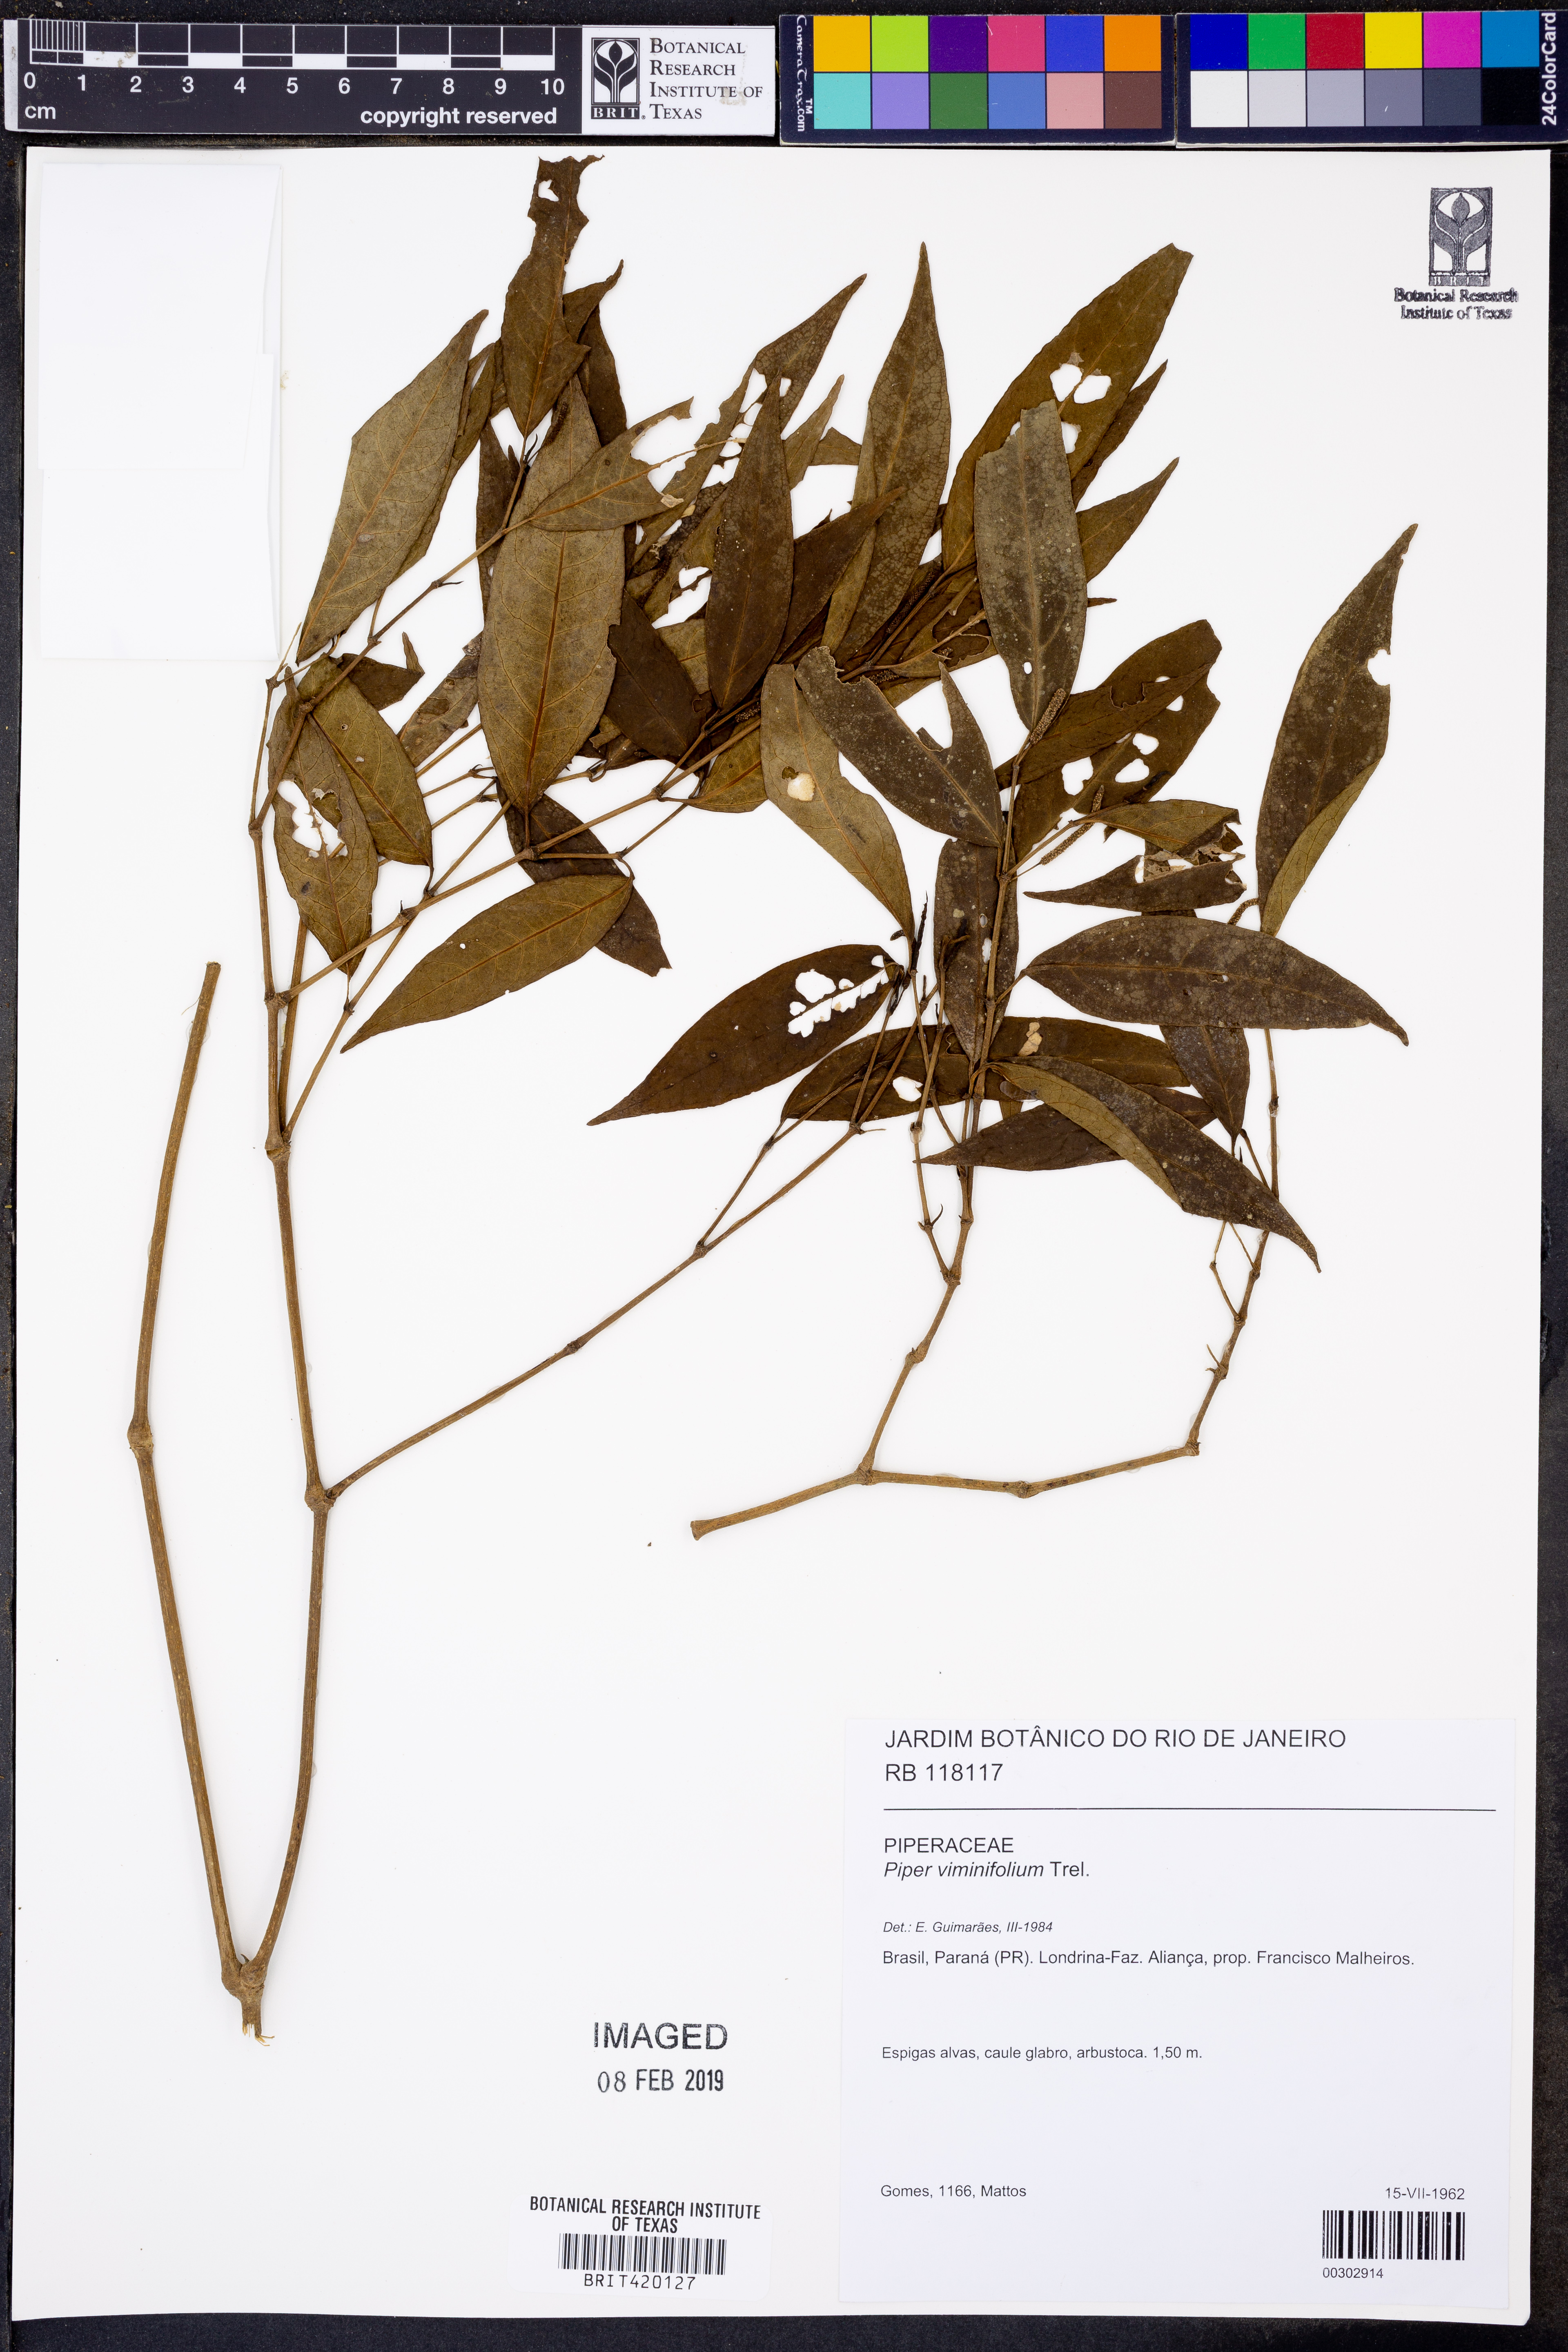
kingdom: Plantae
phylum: Tracheophyta
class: Magnoliopsida
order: Piperales
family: Piperaceae
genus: Piper
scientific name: Piper viminifolium
